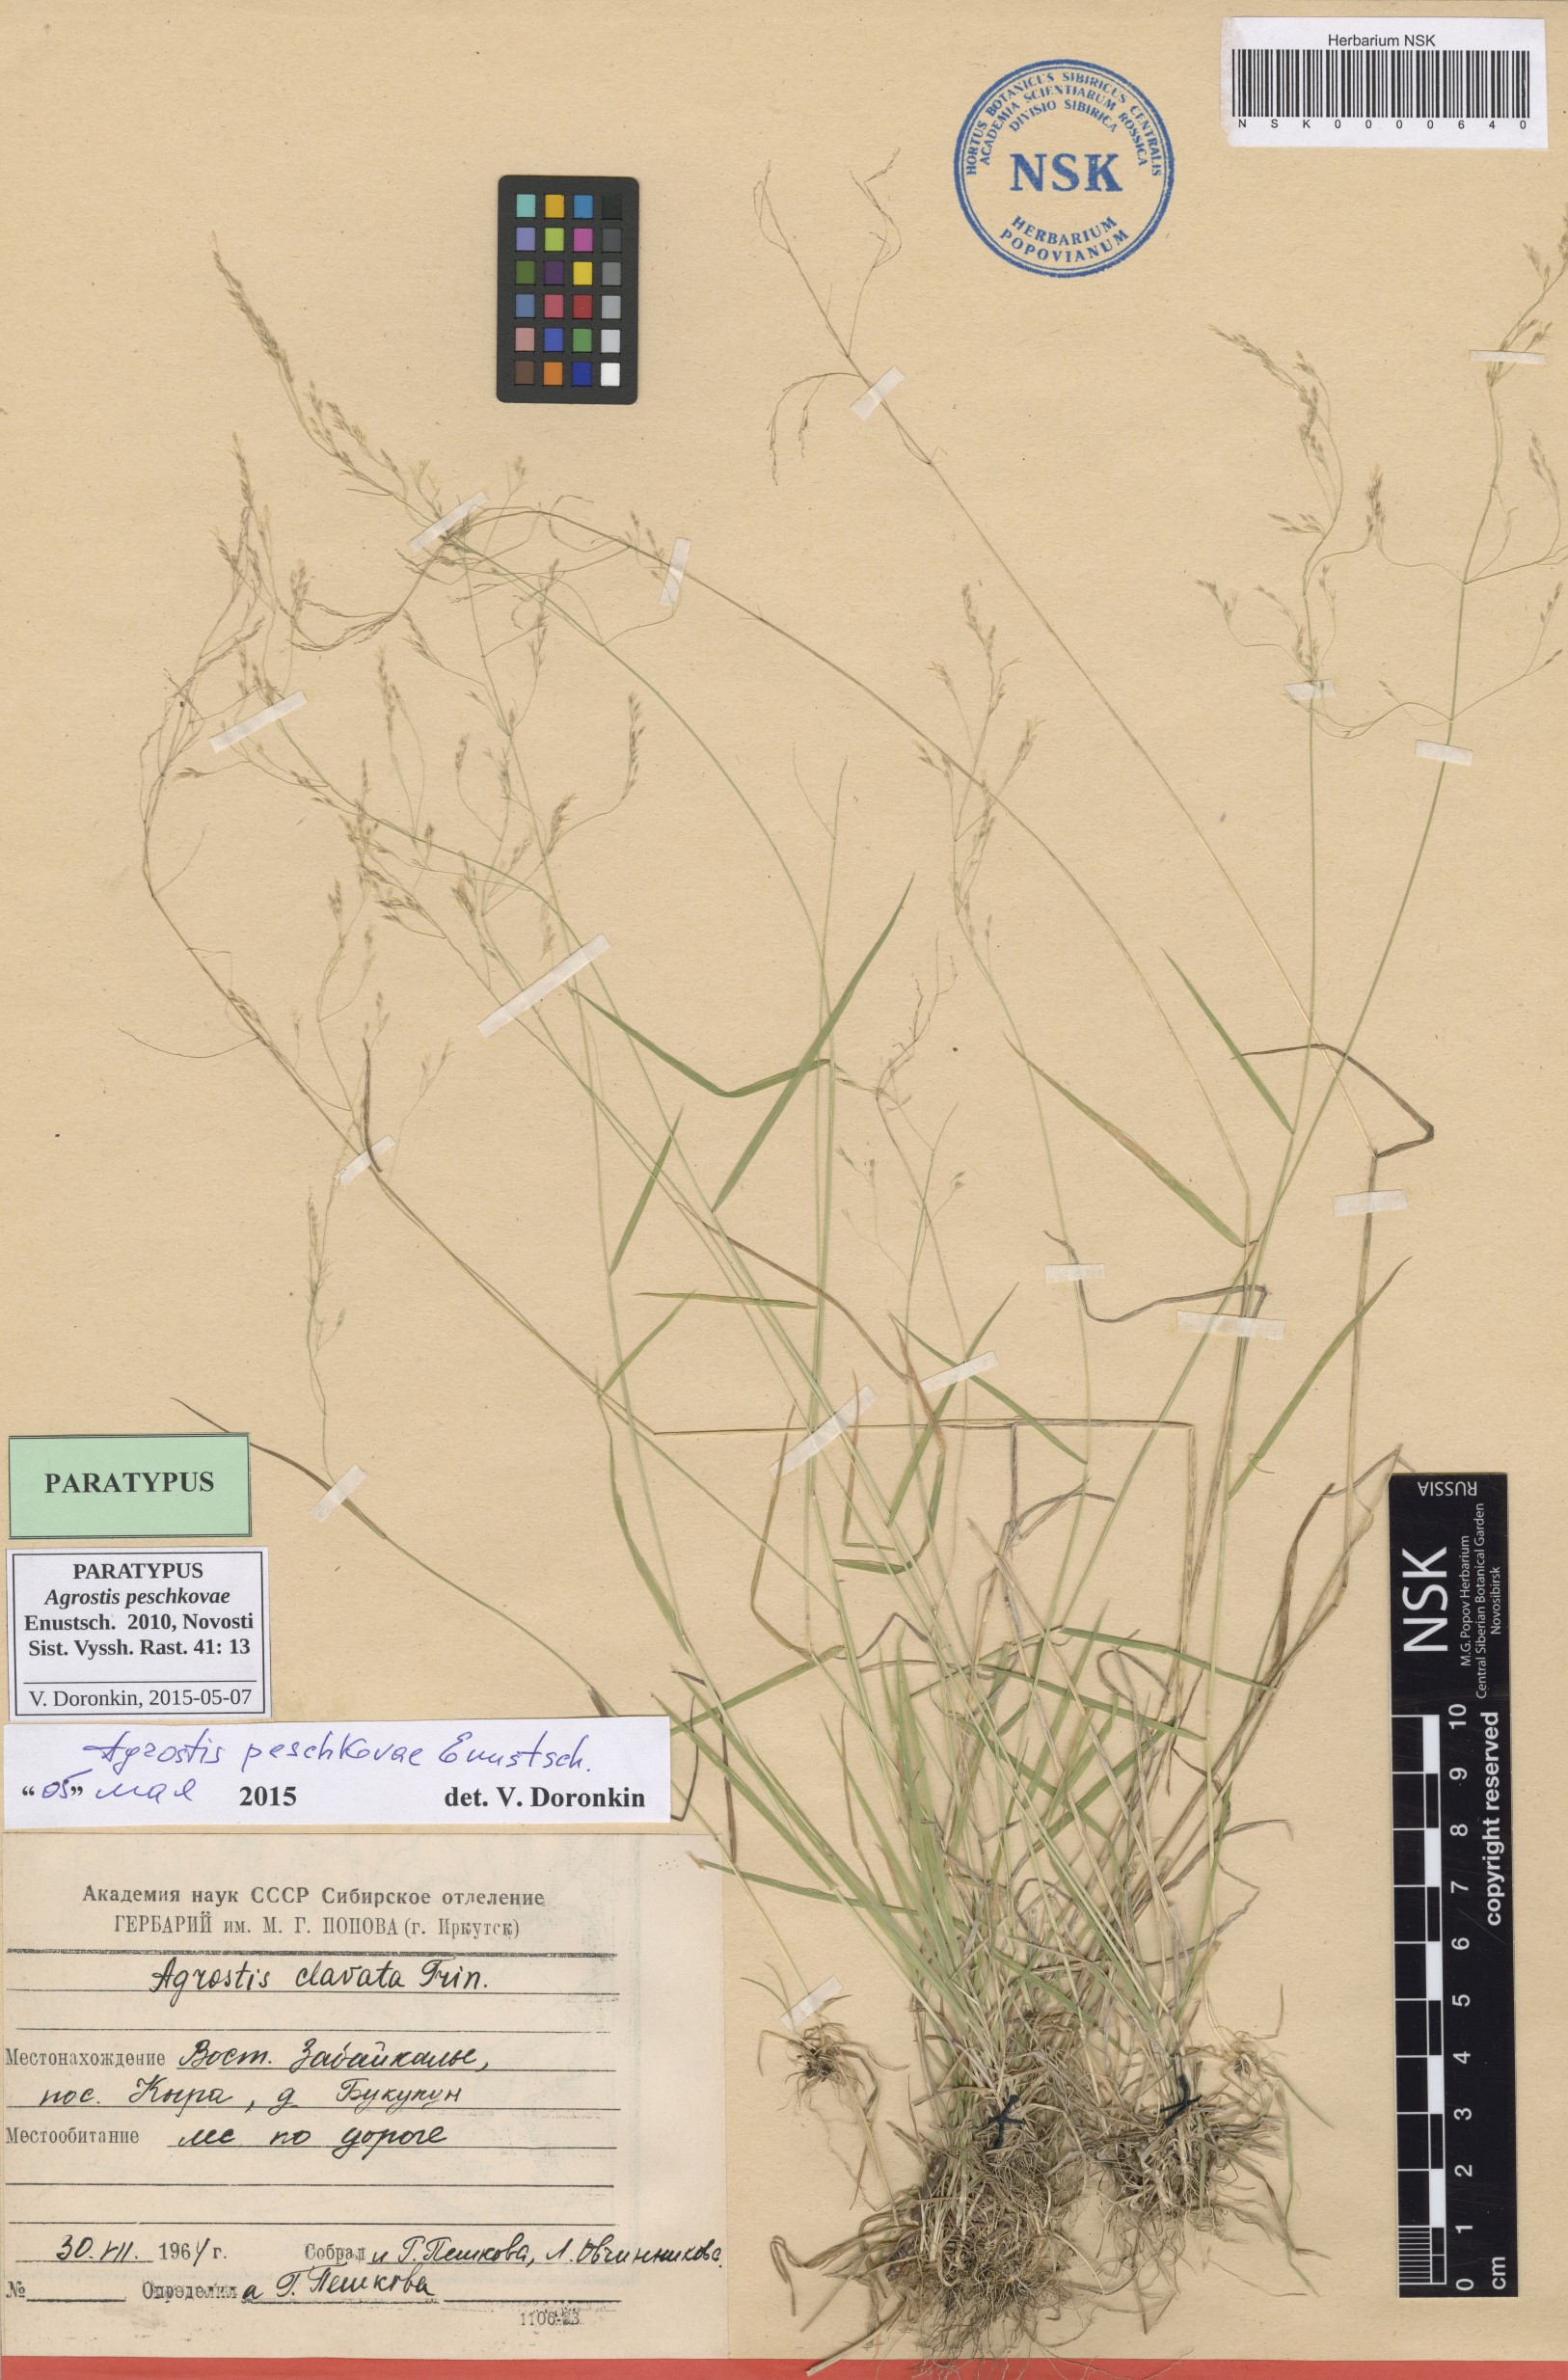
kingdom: Plantae
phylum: Tracheophyta
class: Liliopsida
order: Poales
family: Poaceae
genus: Agrostis
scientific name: Agrostis peschkovae
